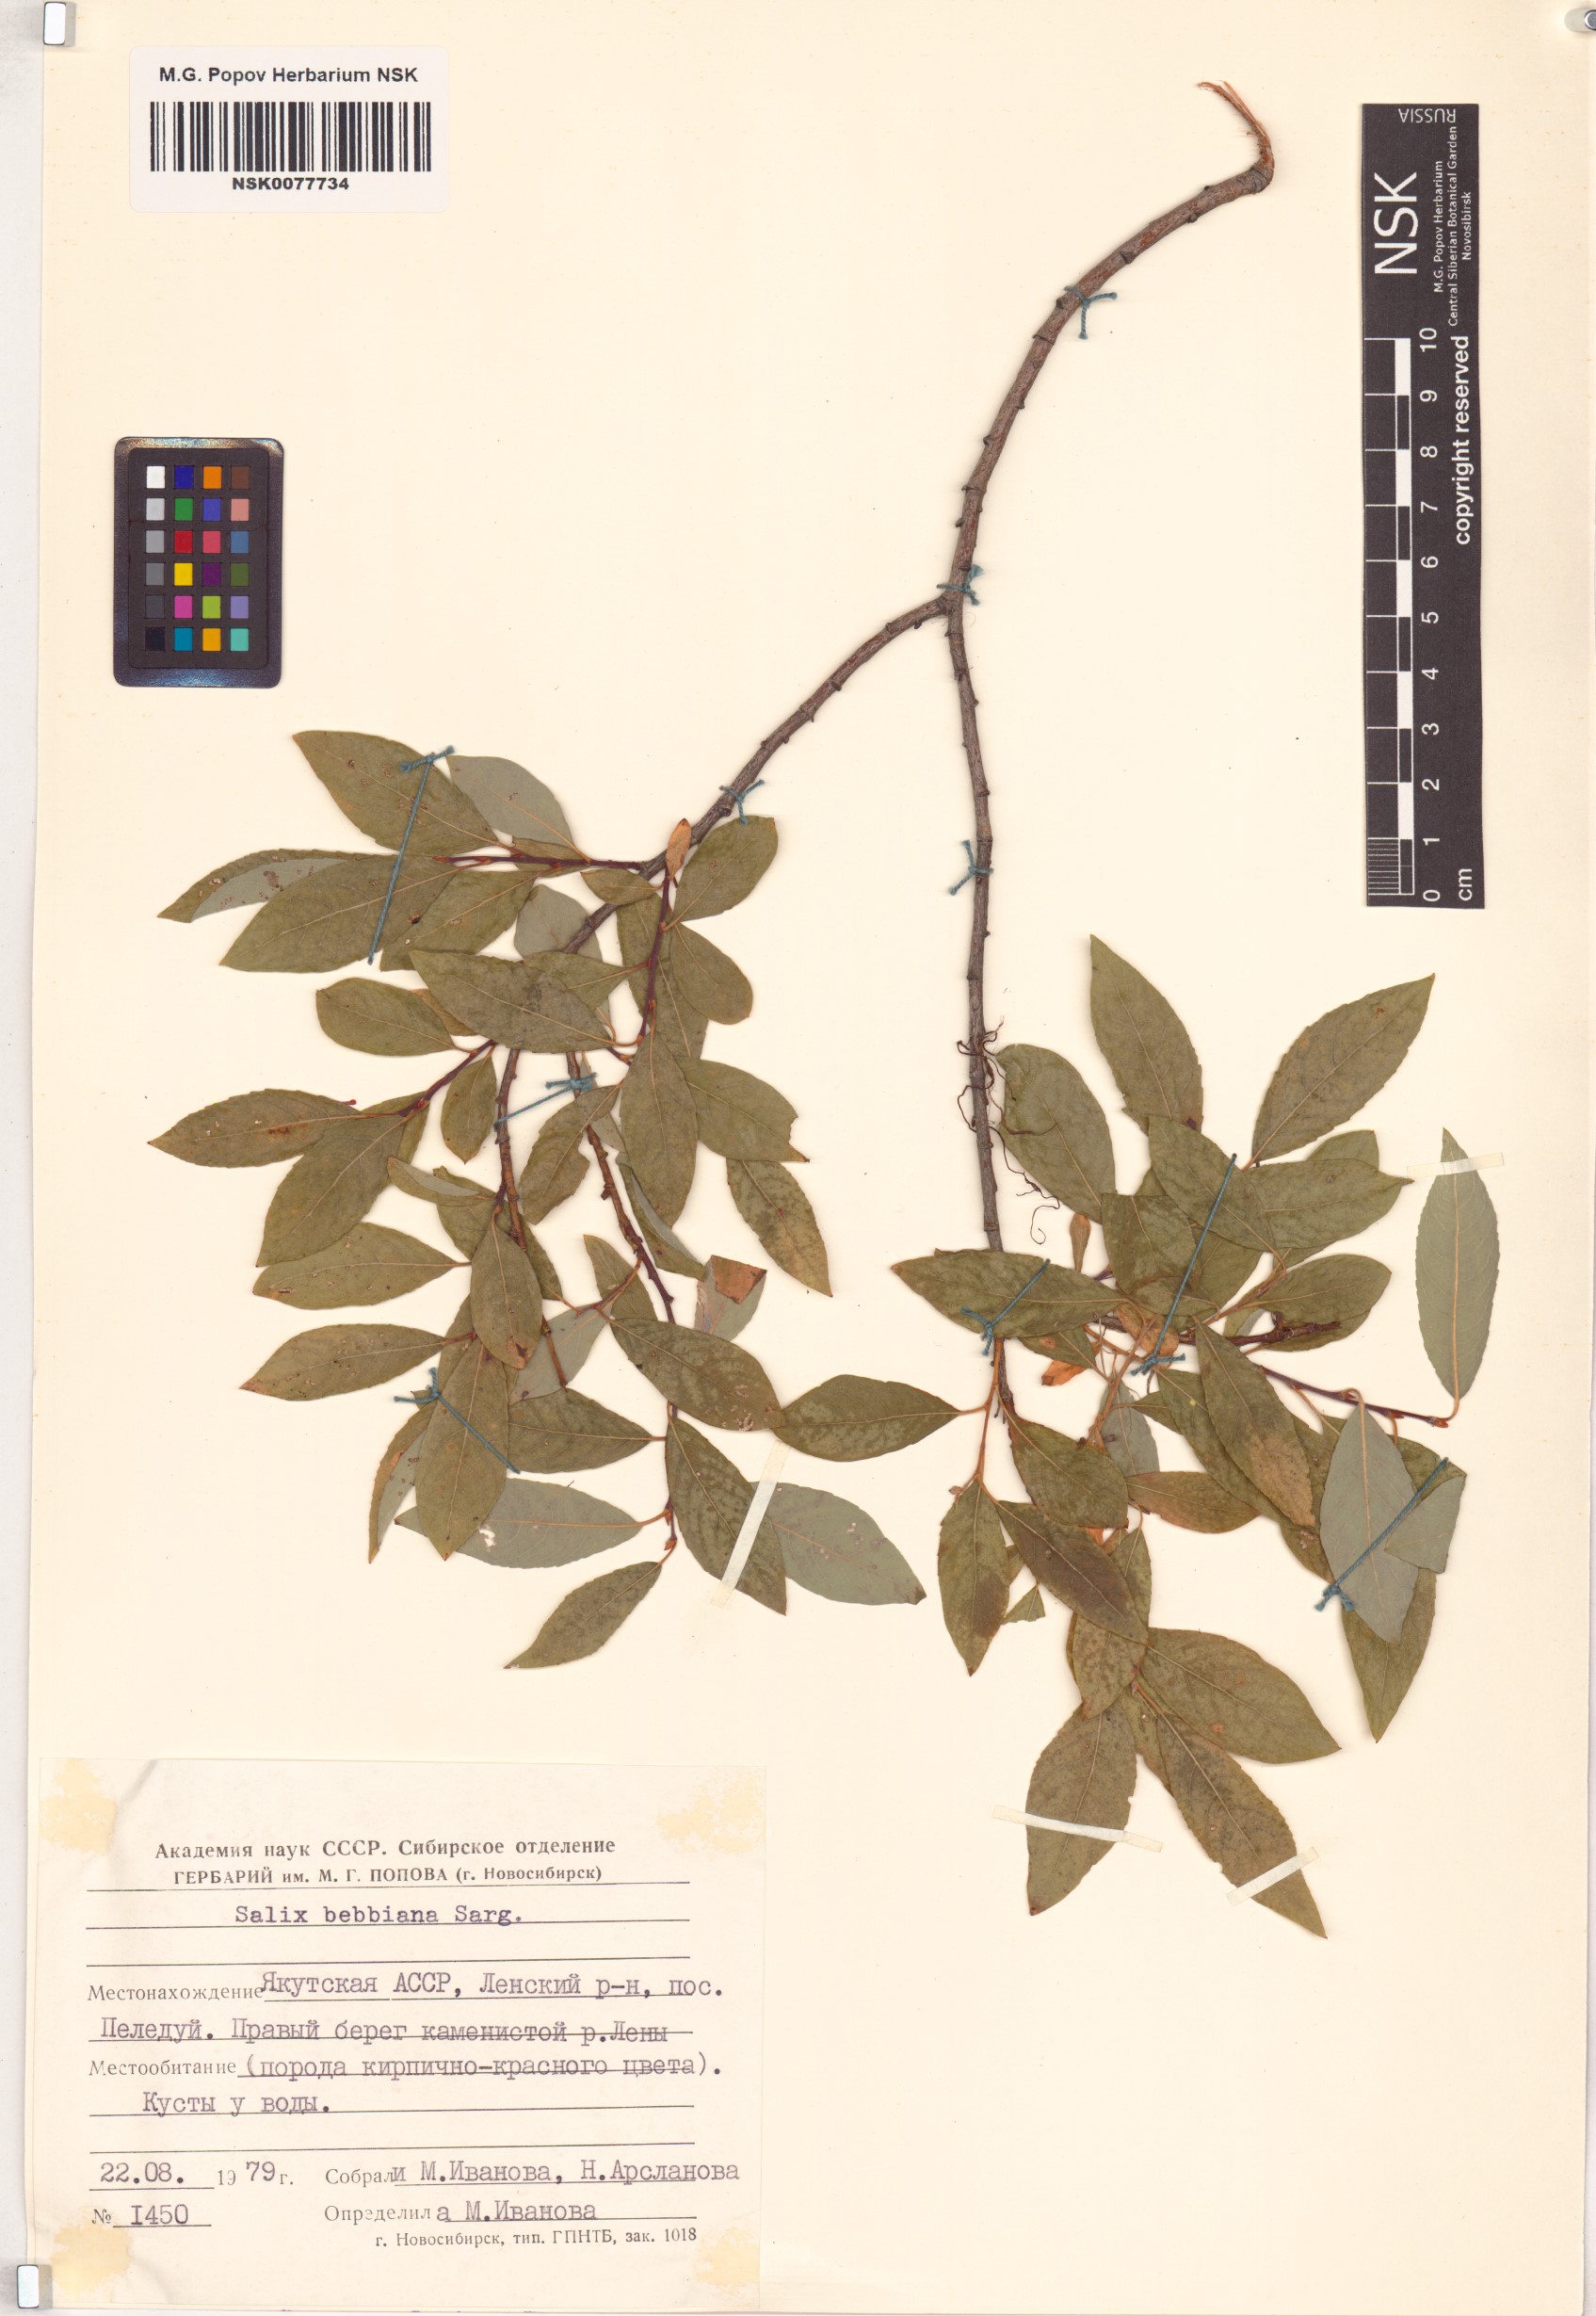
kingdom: Plantae
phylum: Tracheophyta
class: Magnoliopsida
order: Malpighiales
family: Salicaceae
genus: Salix
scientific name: Salix bebbiana
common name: Bebb's willow
